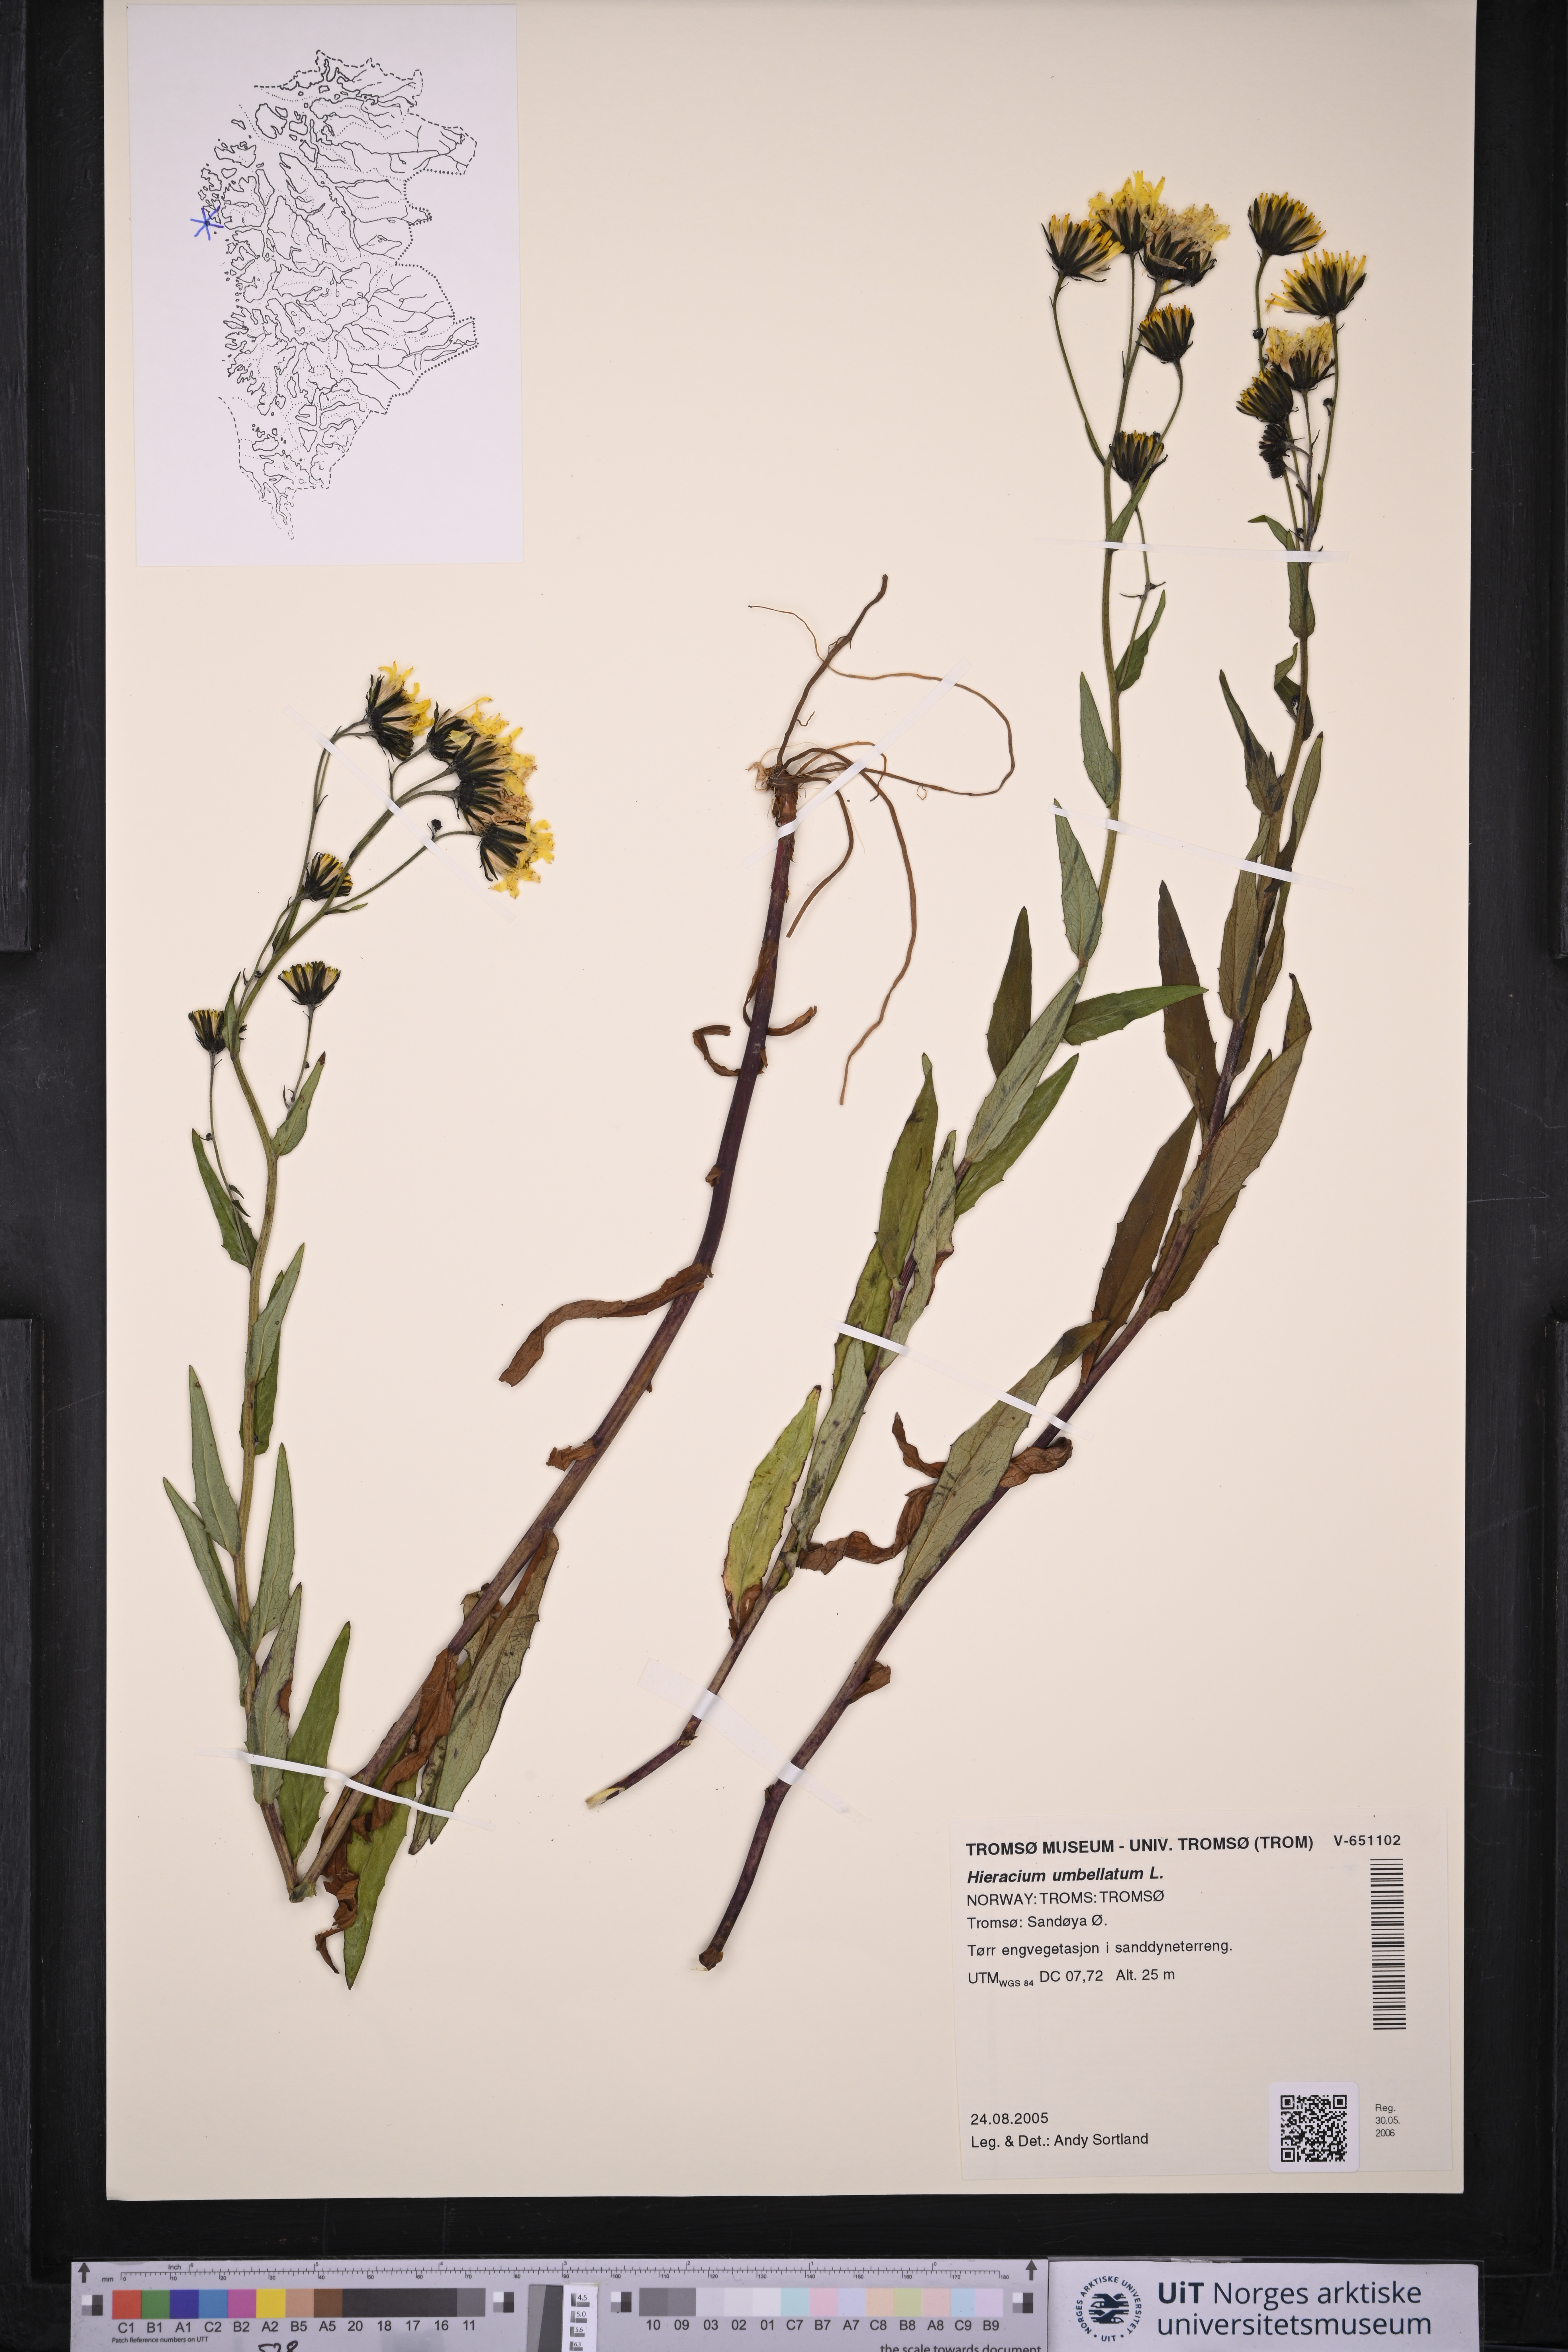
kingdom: Plantae
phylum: Tracheophyta
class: Magnoliopsida
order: Asterales
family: Asteraceae
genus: Hieracium
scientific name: Hieracium umbellatum
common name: Northern hawkweed
